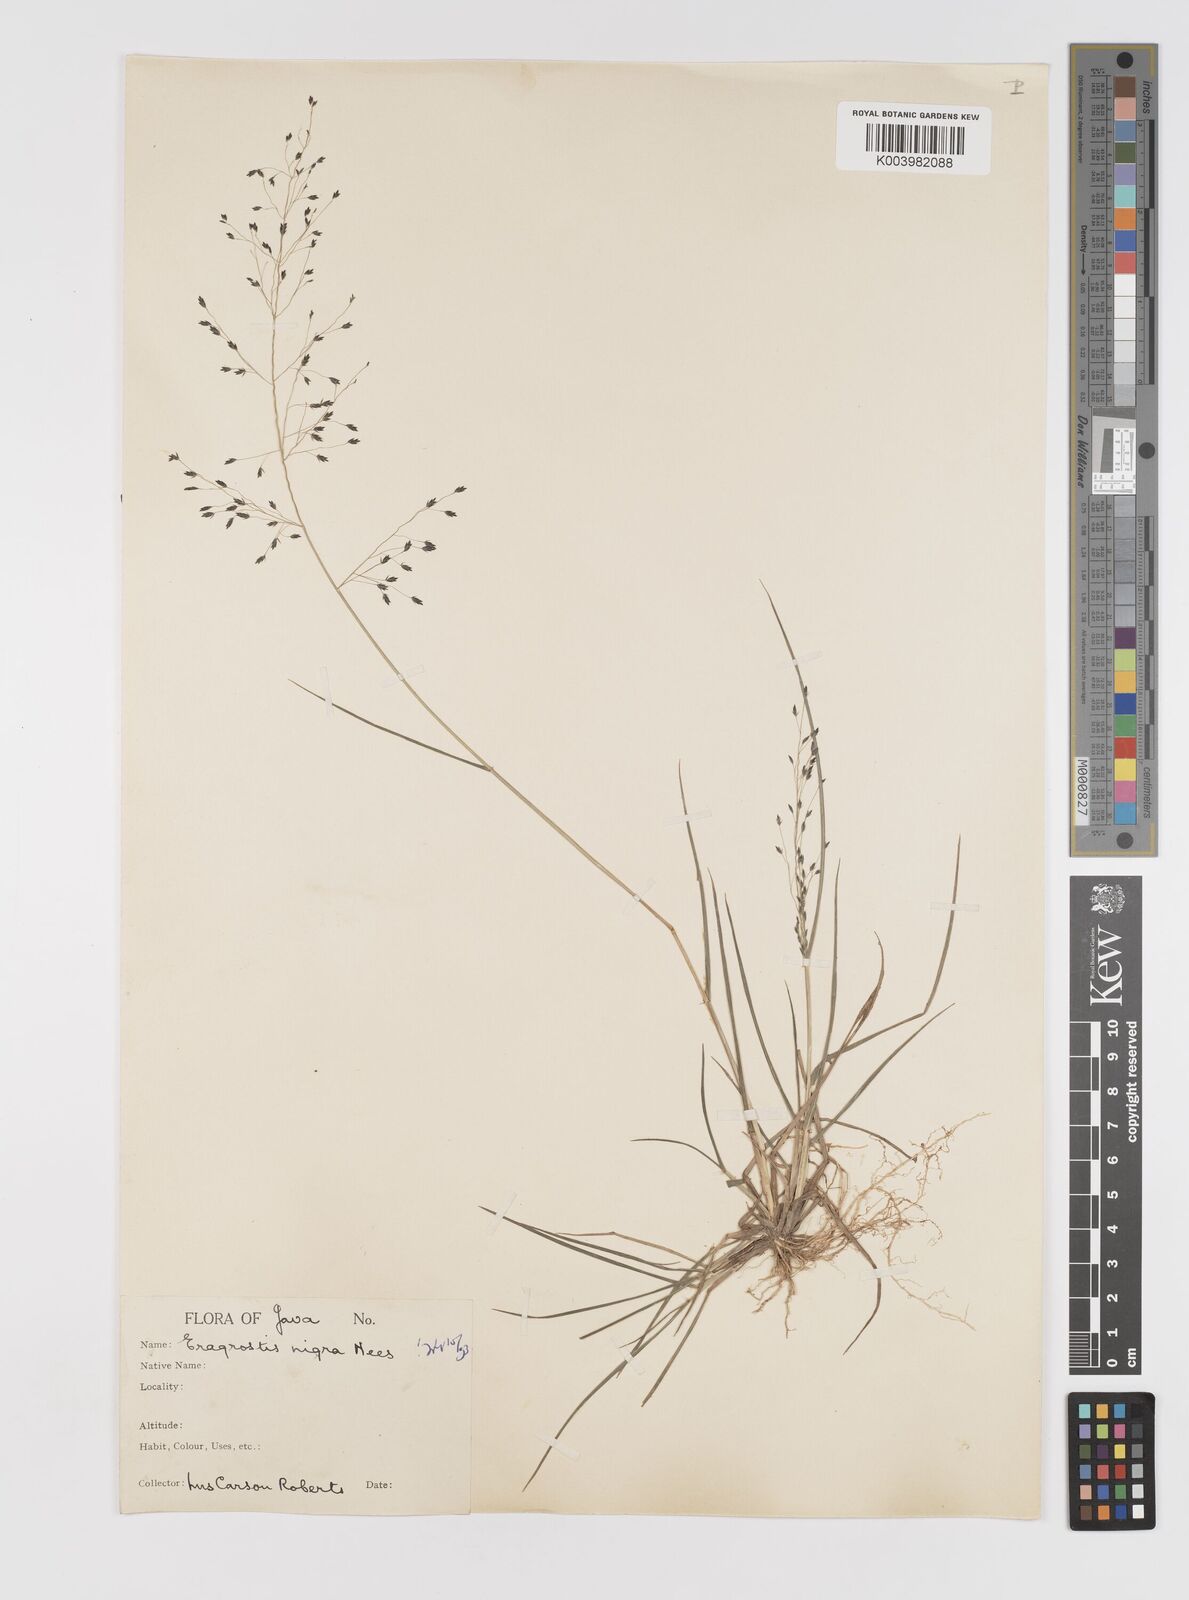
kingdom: Plantae
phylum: Tracheophyta
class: Liliopsida
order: Poales
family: Poaceae
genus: Eragrostis
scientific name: Eragrostis nigra
